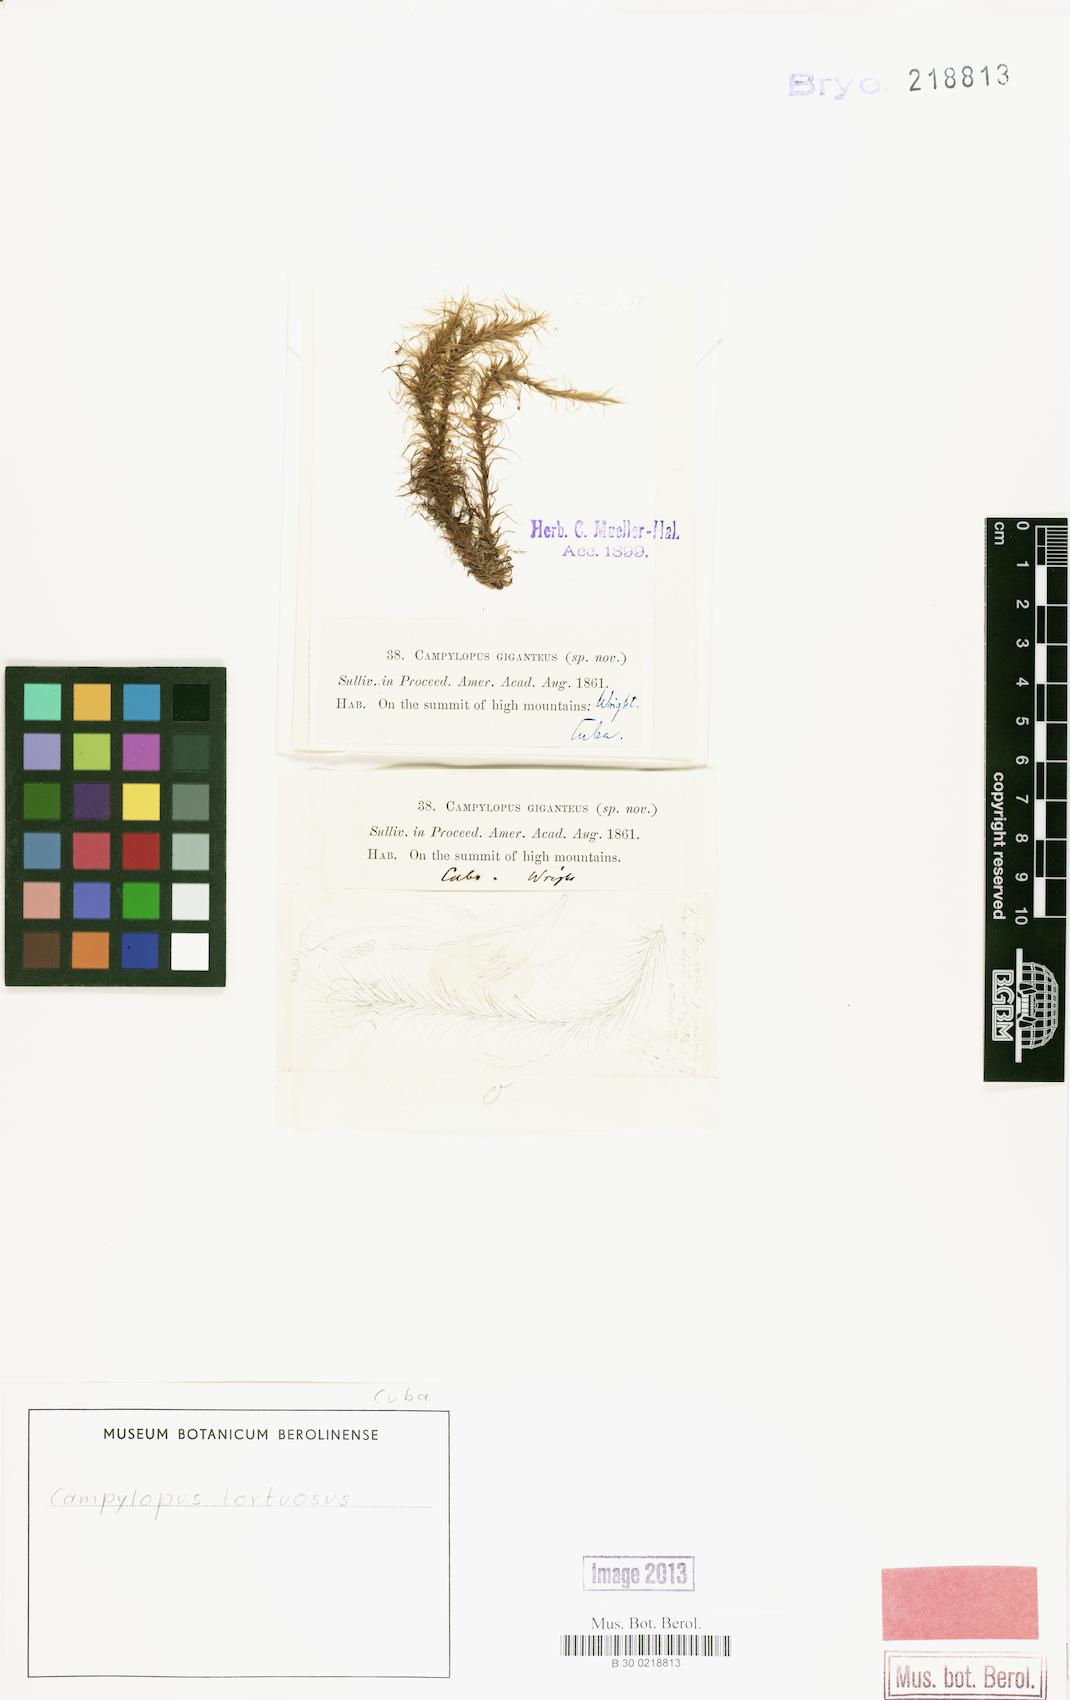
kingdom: Plantae
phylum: Bryophyta
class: Bryopsida
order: Dicranales
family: Leucobryaceae
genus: Campylopus
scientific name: Campylopus lamellinervis
